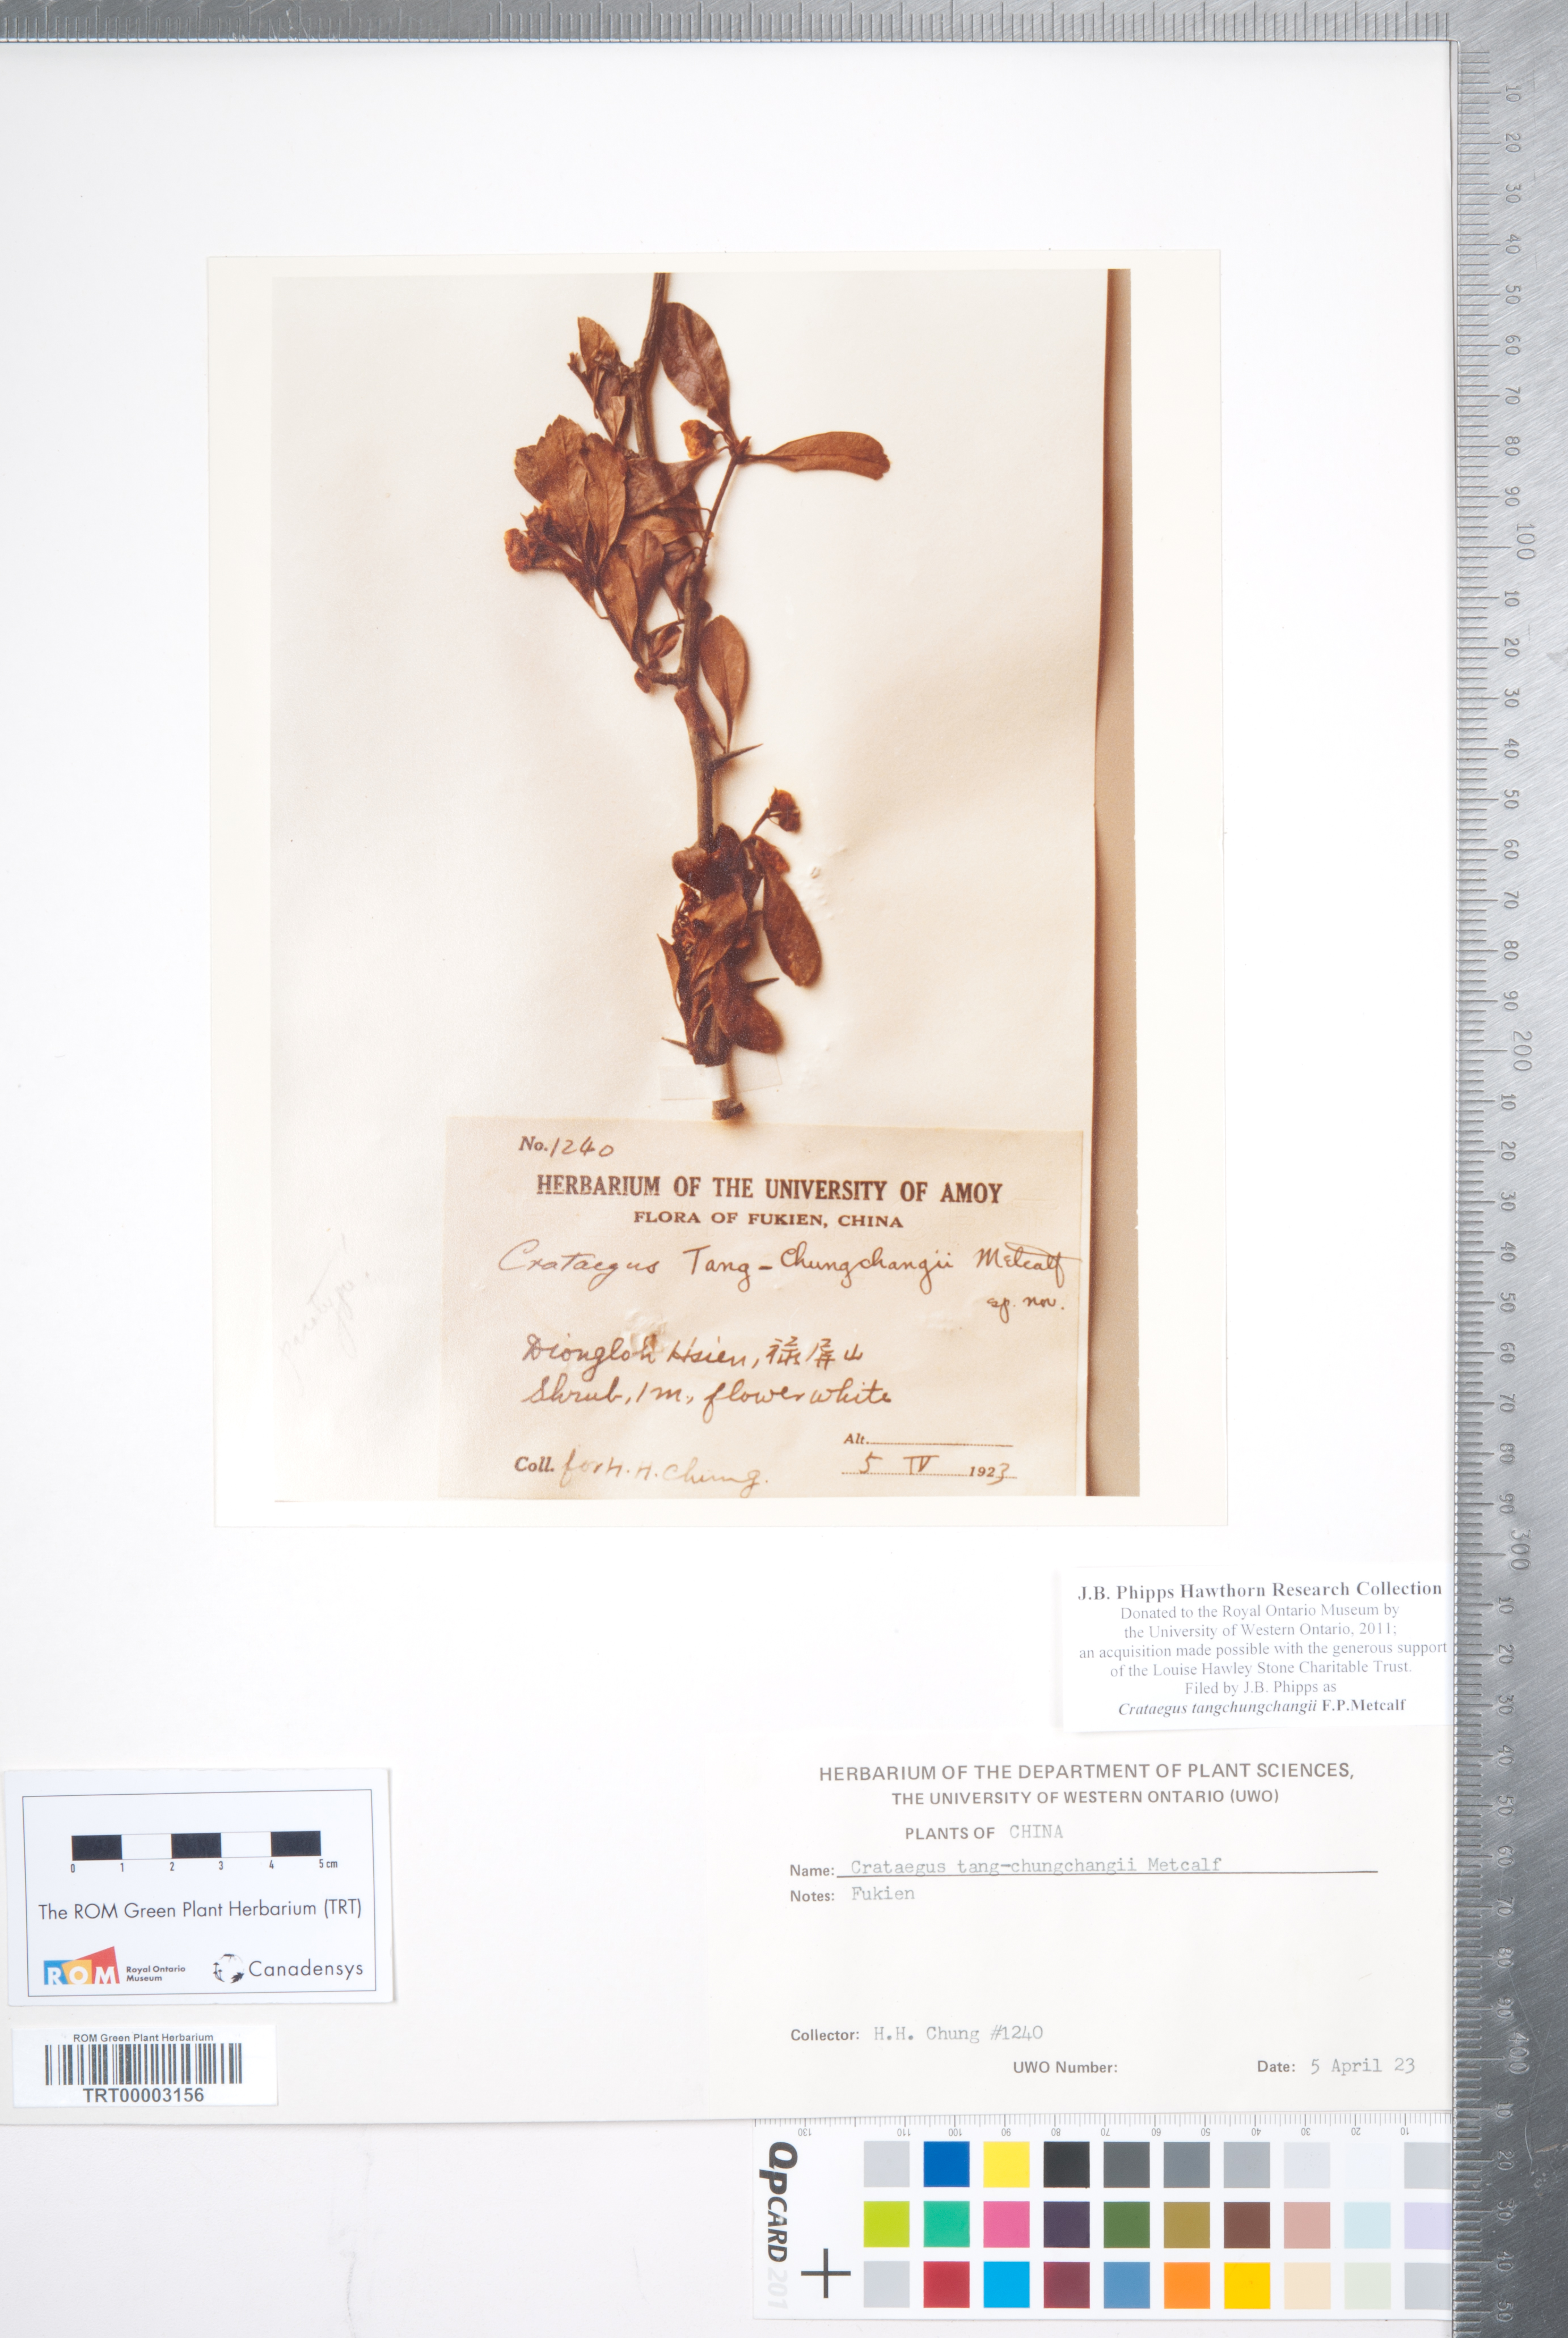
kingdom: Plantae
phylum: Tracheophyta
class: Magnoliopsida
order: Rosales
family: Rosaceae
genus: Crataegus
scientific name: Crataegus cuneata
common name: Chinese hawthorn
